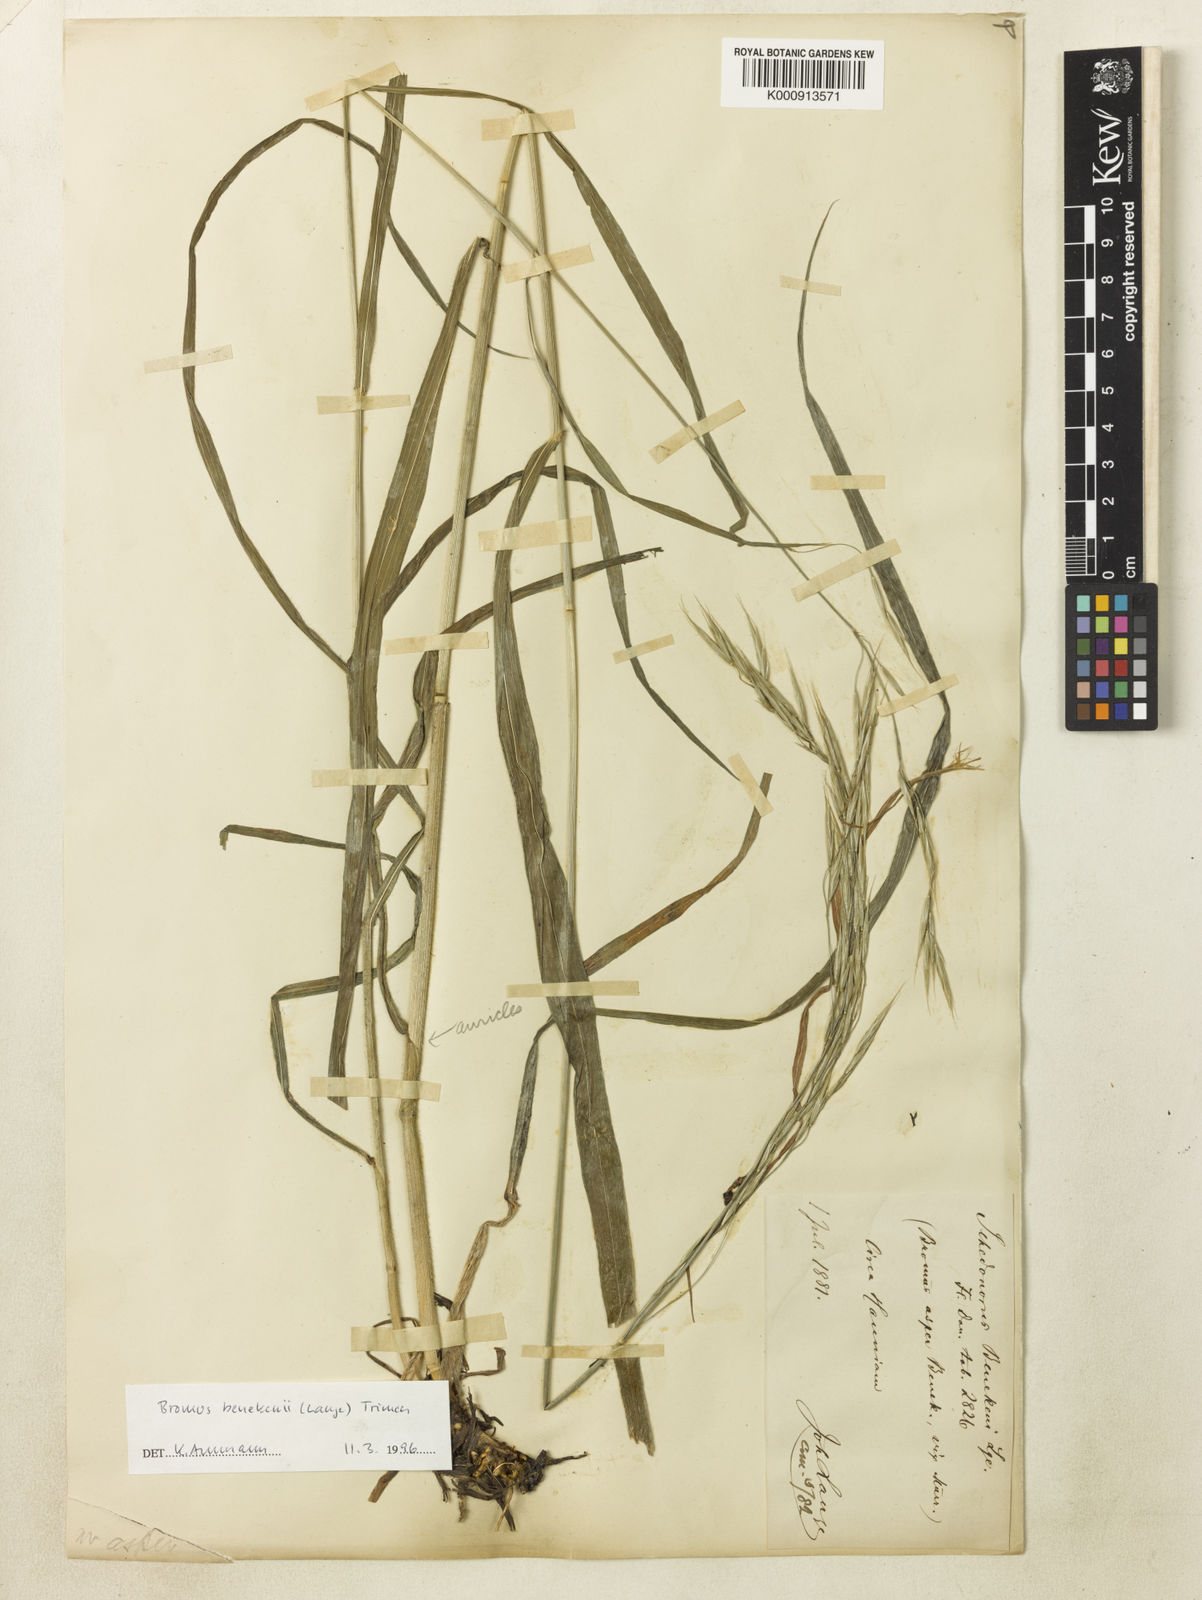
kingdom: Plantae
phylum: Tracheophyta
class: Liliopsida
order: Poales
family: Poaceae
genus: Bromus
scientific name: Bromus benekenii
